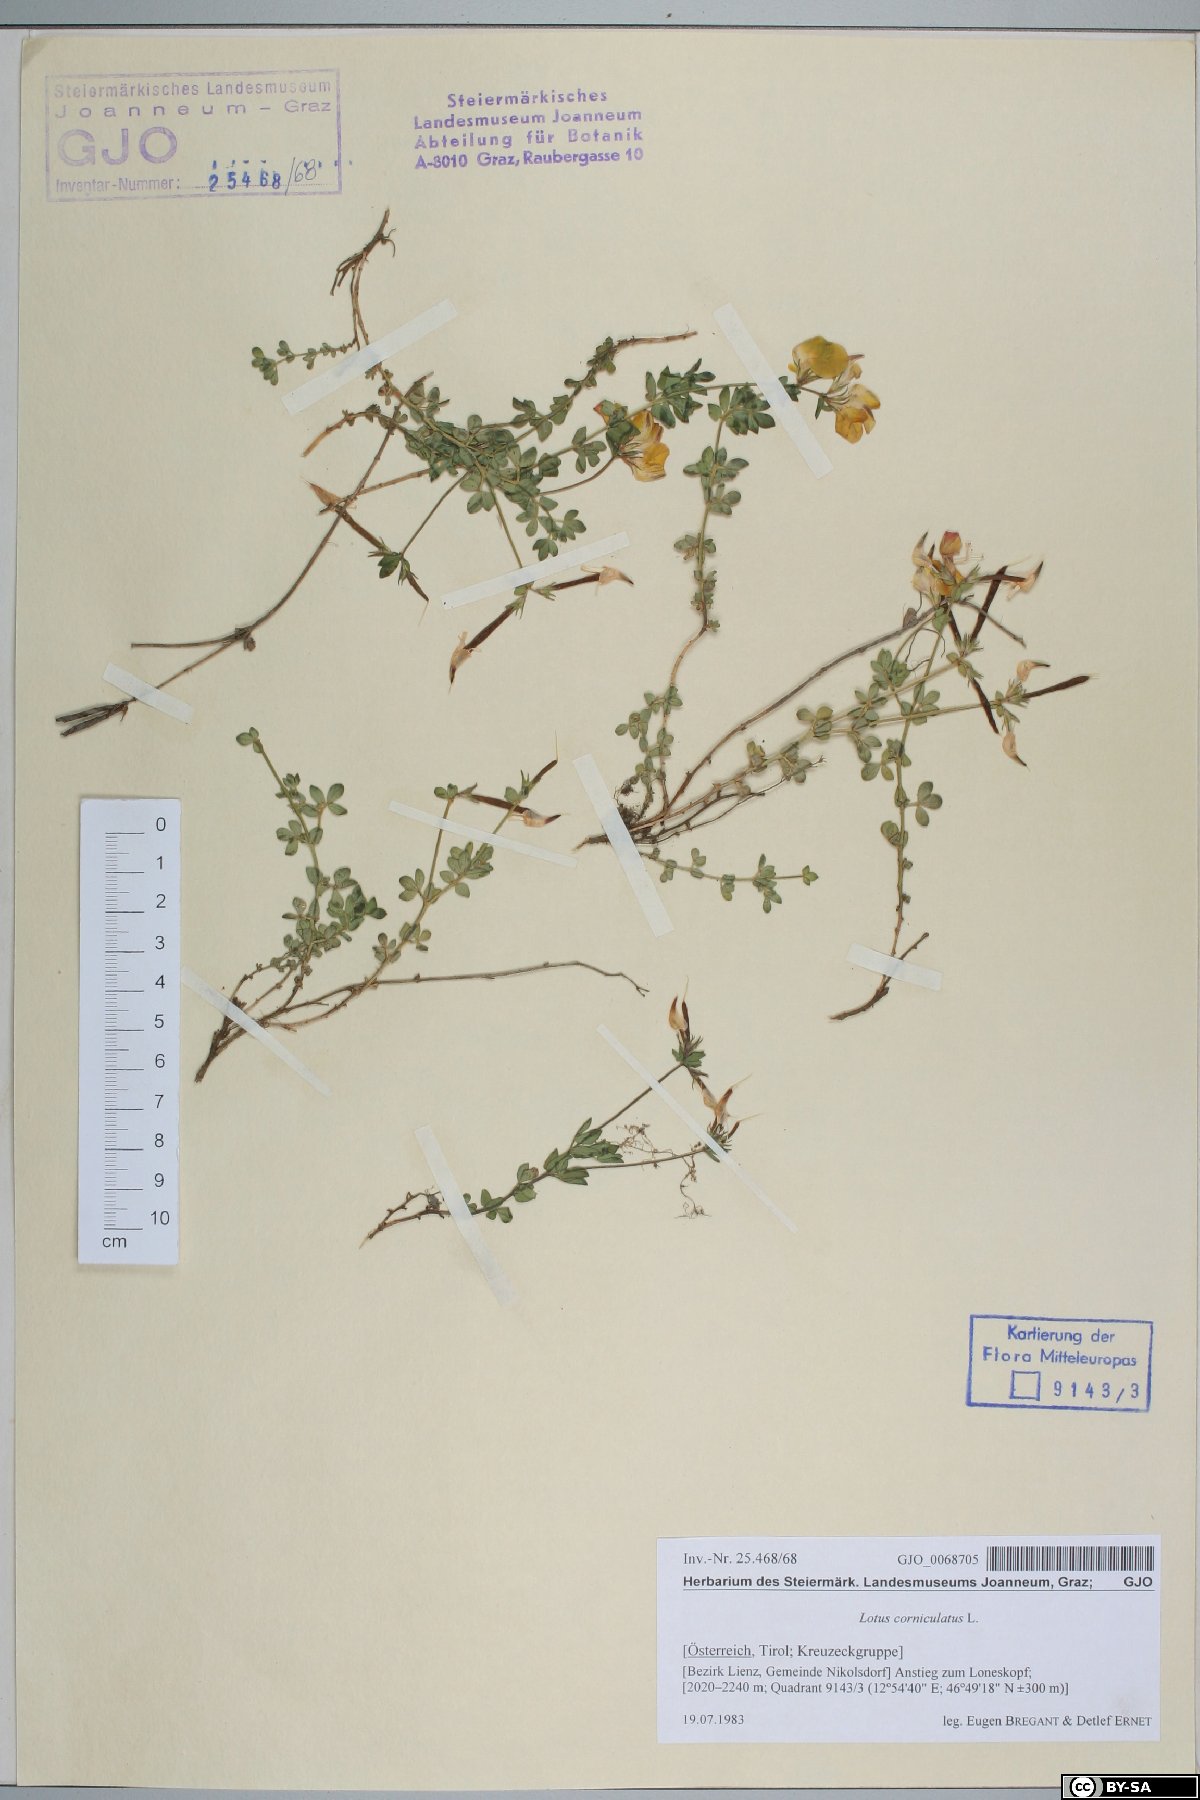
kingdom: Plantae
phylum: Tracheophyta
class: Magnoliopsida
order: Fabales
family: Fabaceae
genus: Lotus
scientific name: Lotus corniculatus
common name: Common bird's-foot-trefoil
